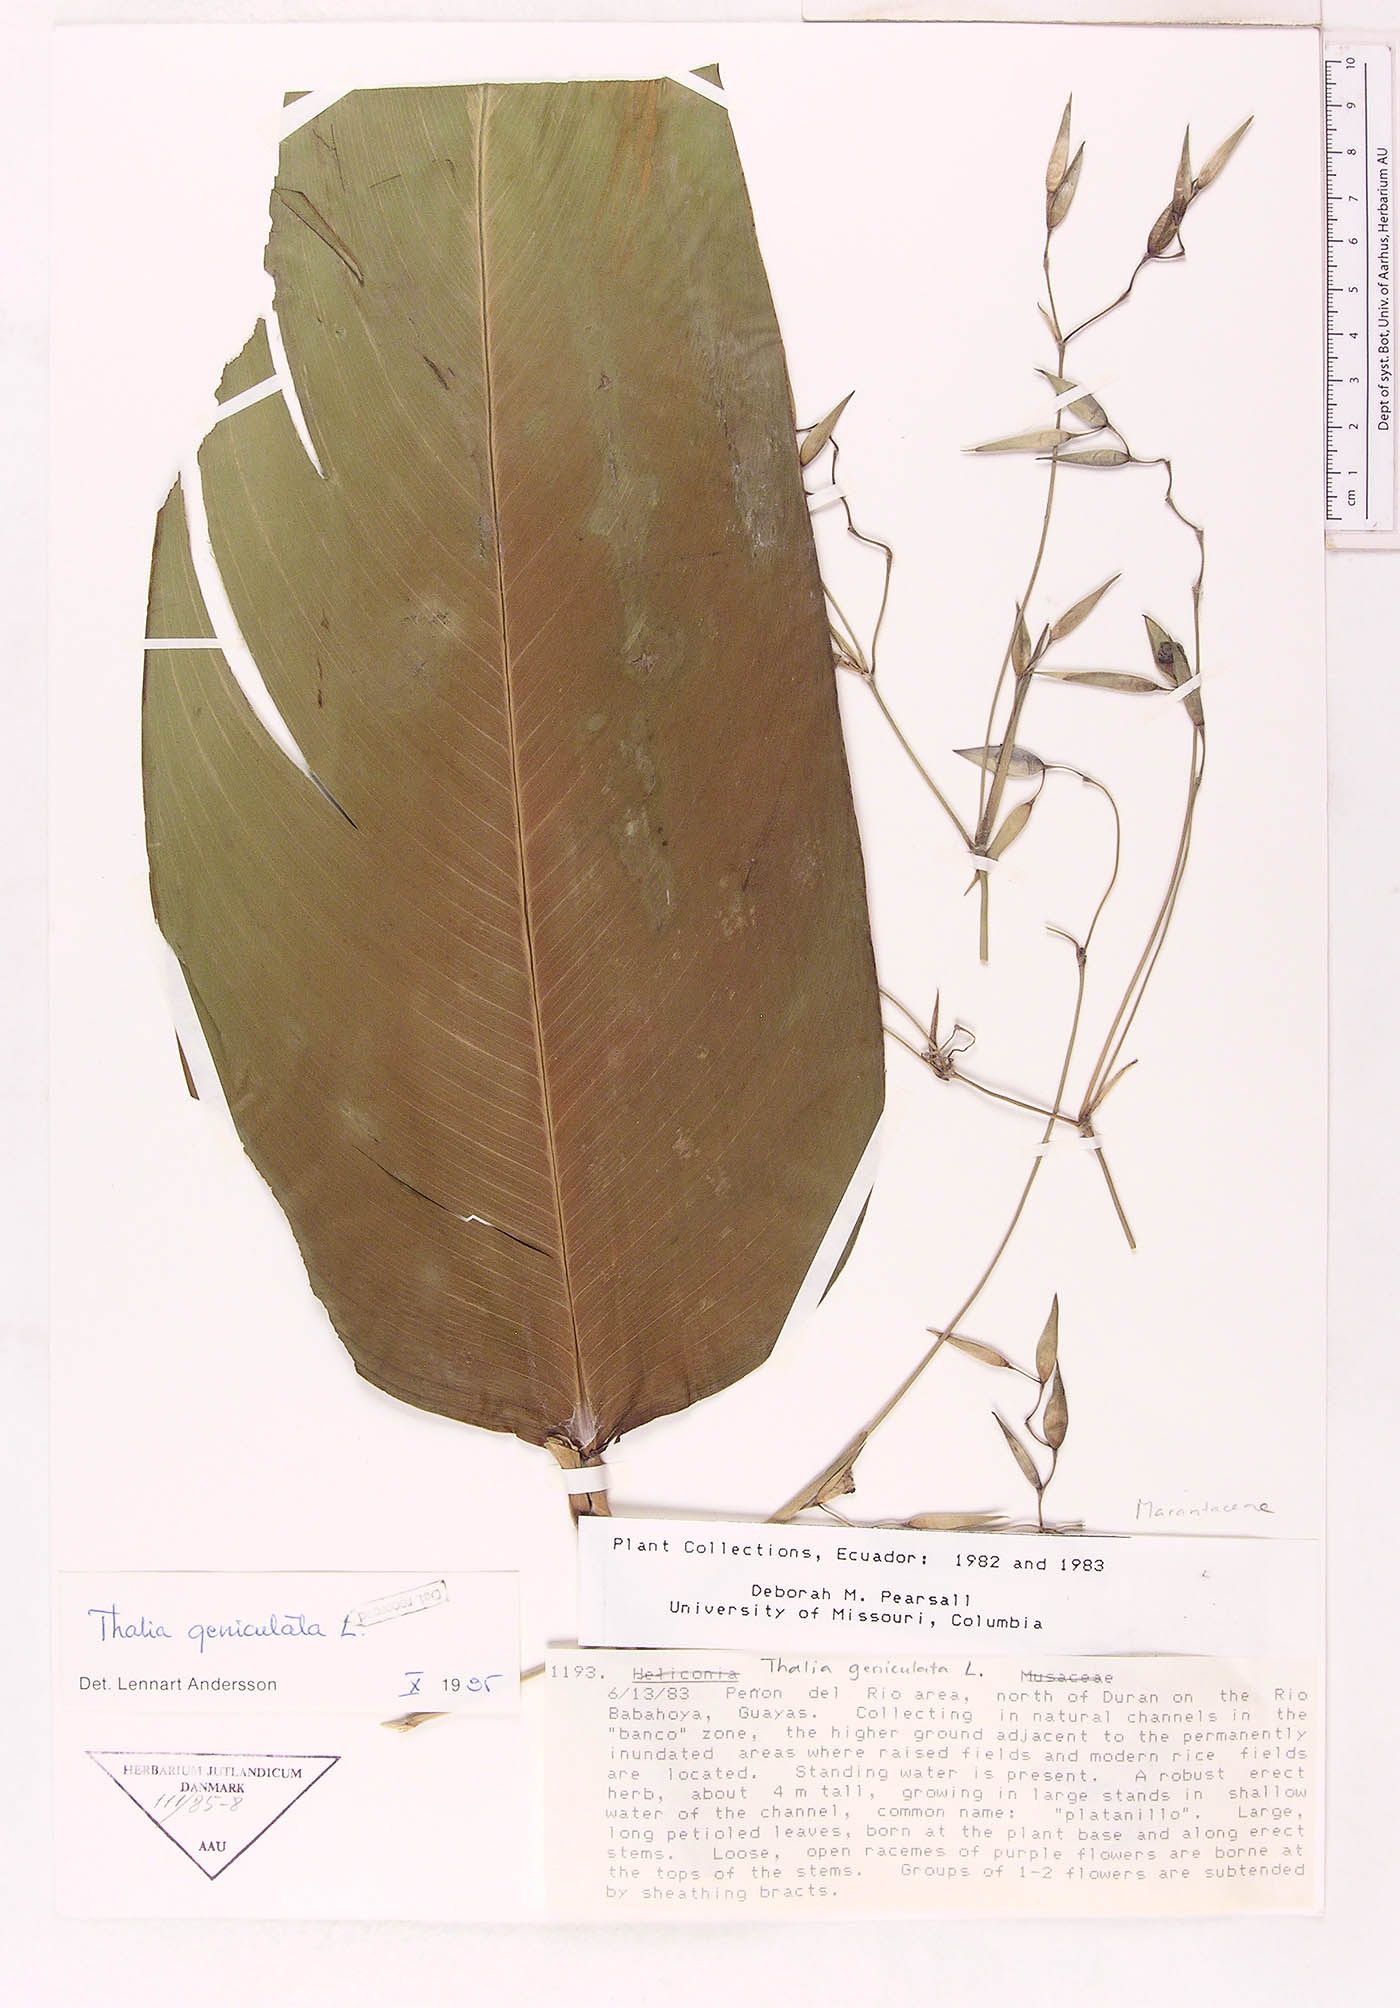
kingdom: Plantae
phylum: Tracheophyta
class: Liliopsida
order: Zingiberales
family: Marantaceae
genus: Thalia
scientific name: Thalia geniculata
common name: Arrowroot
